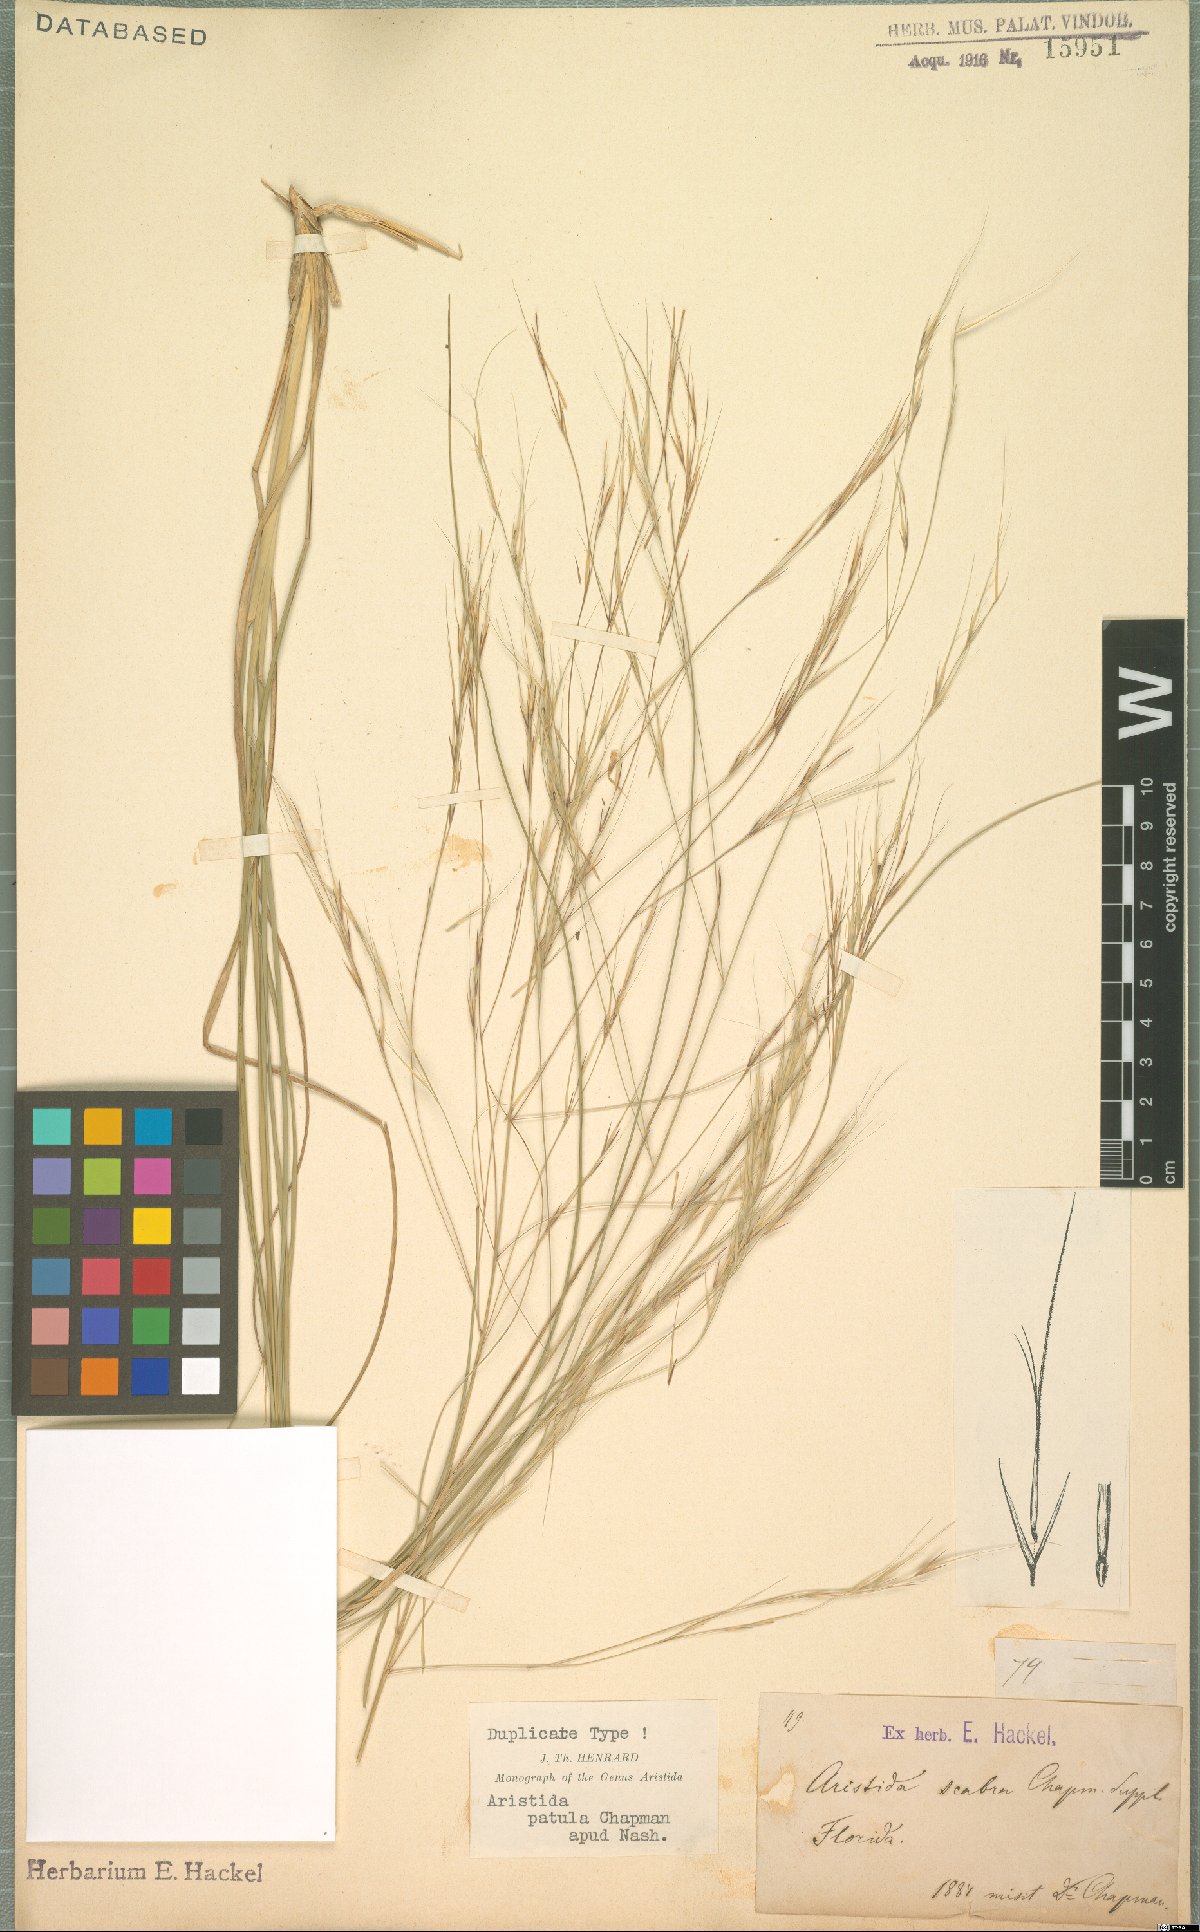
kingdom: Plantae
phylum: Tracheophyta
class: Liliopsida
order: Poales
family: Poaceae
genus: Aristida
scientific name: Aristida patula
